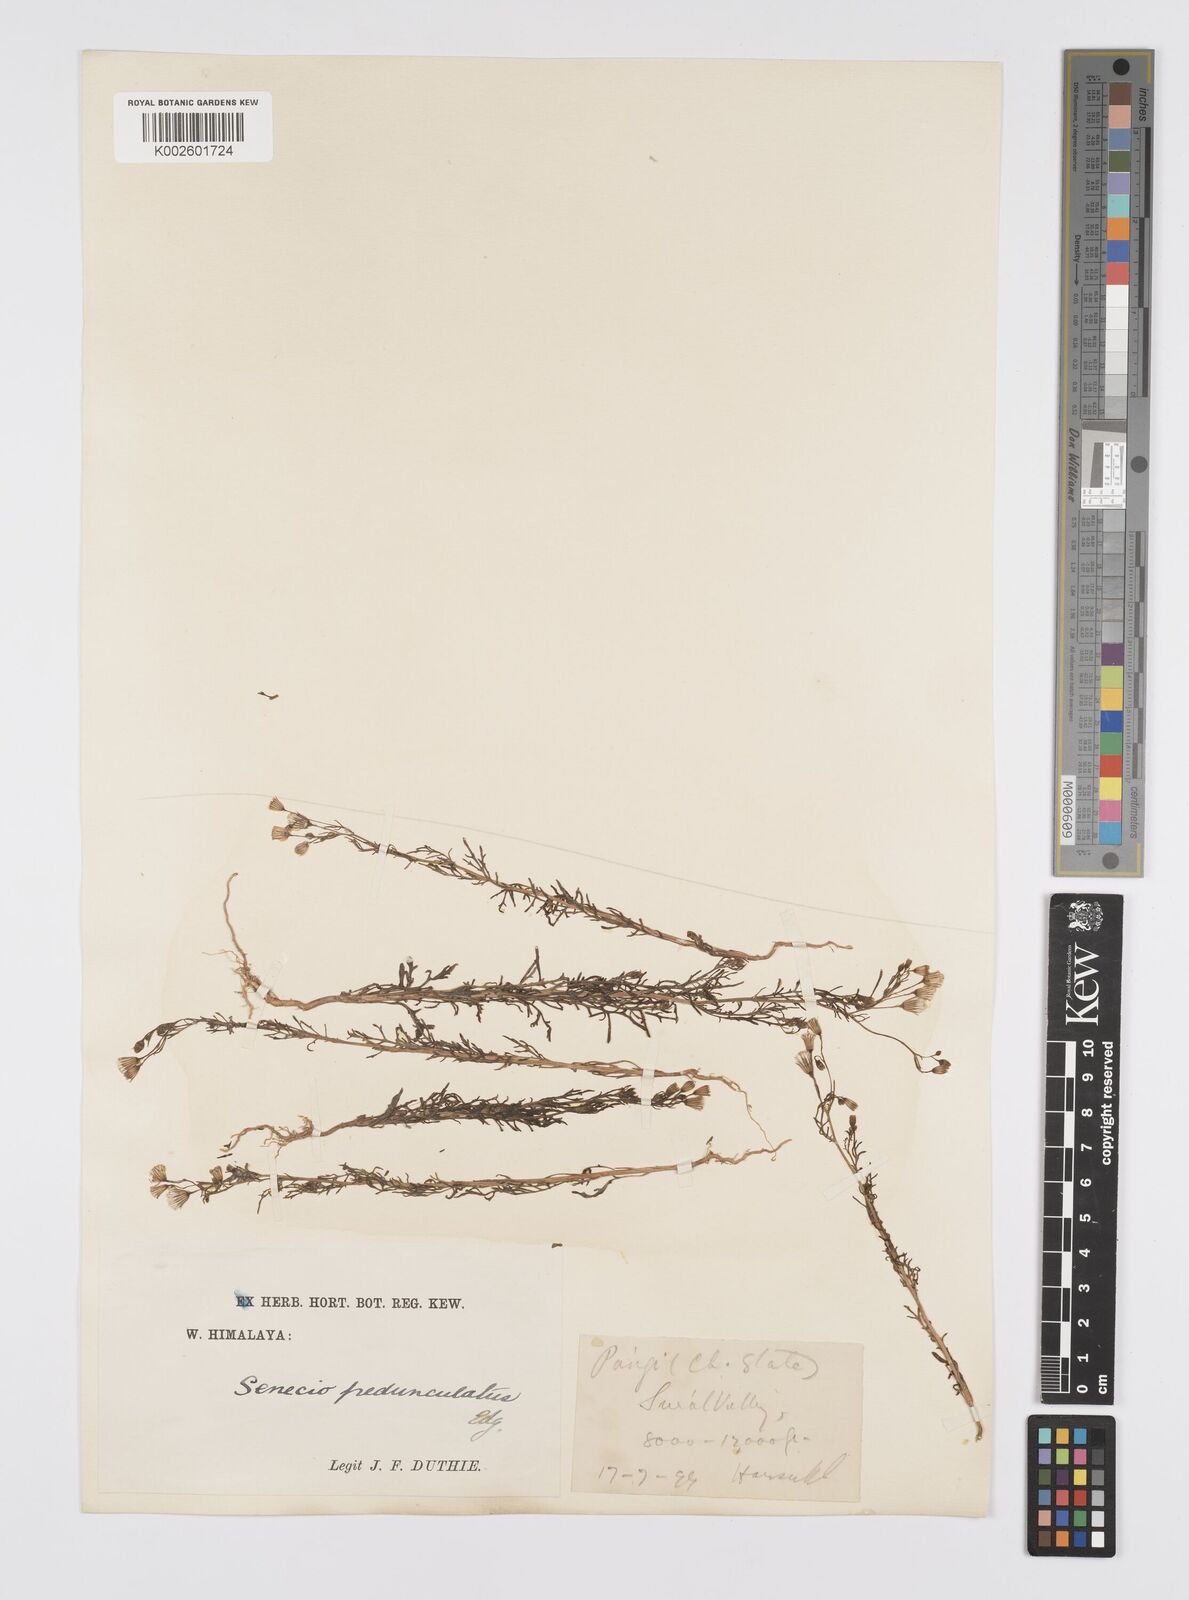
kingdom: Plantae
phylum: Tracheophyta
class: Magnoliopsida
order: Asterales
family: Asteraceae
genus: Senecio
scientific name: Senecio krascheninnikovii
